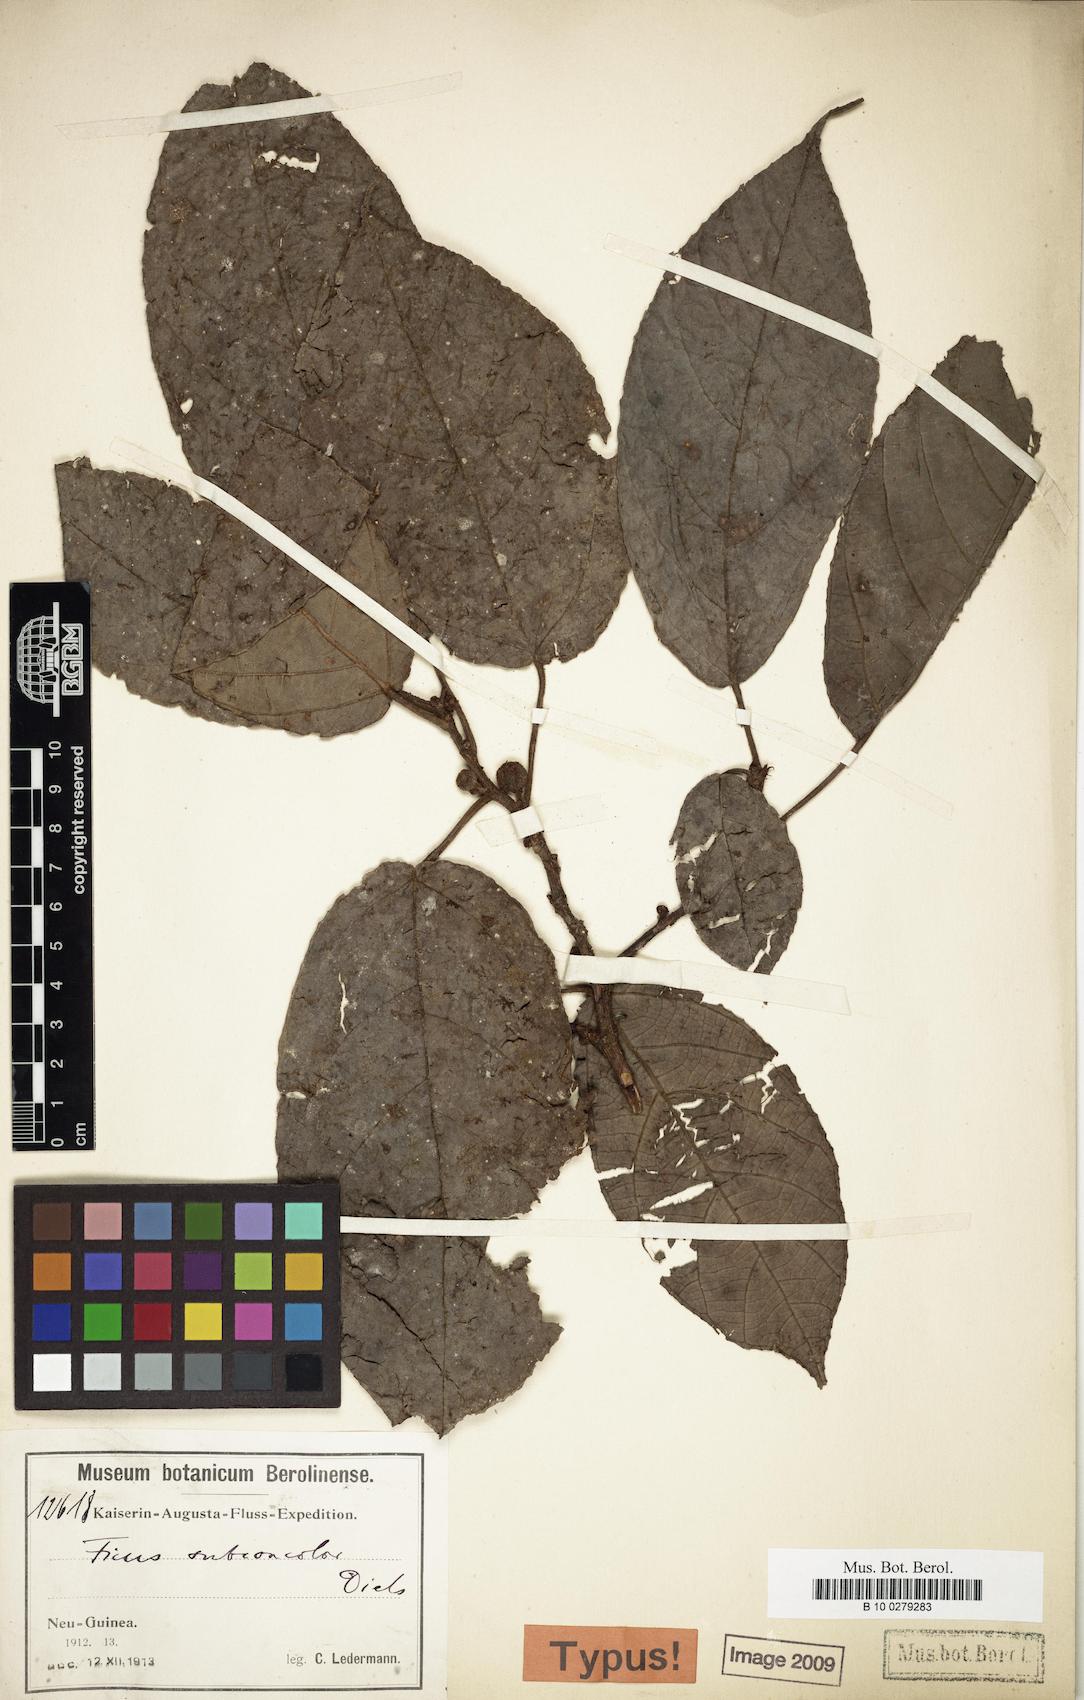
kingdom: Plantae
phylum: Tracheophyta
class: Magnoliopsida
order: Rosales
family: Moraceae
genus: Ficus
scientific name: Ficus gul
